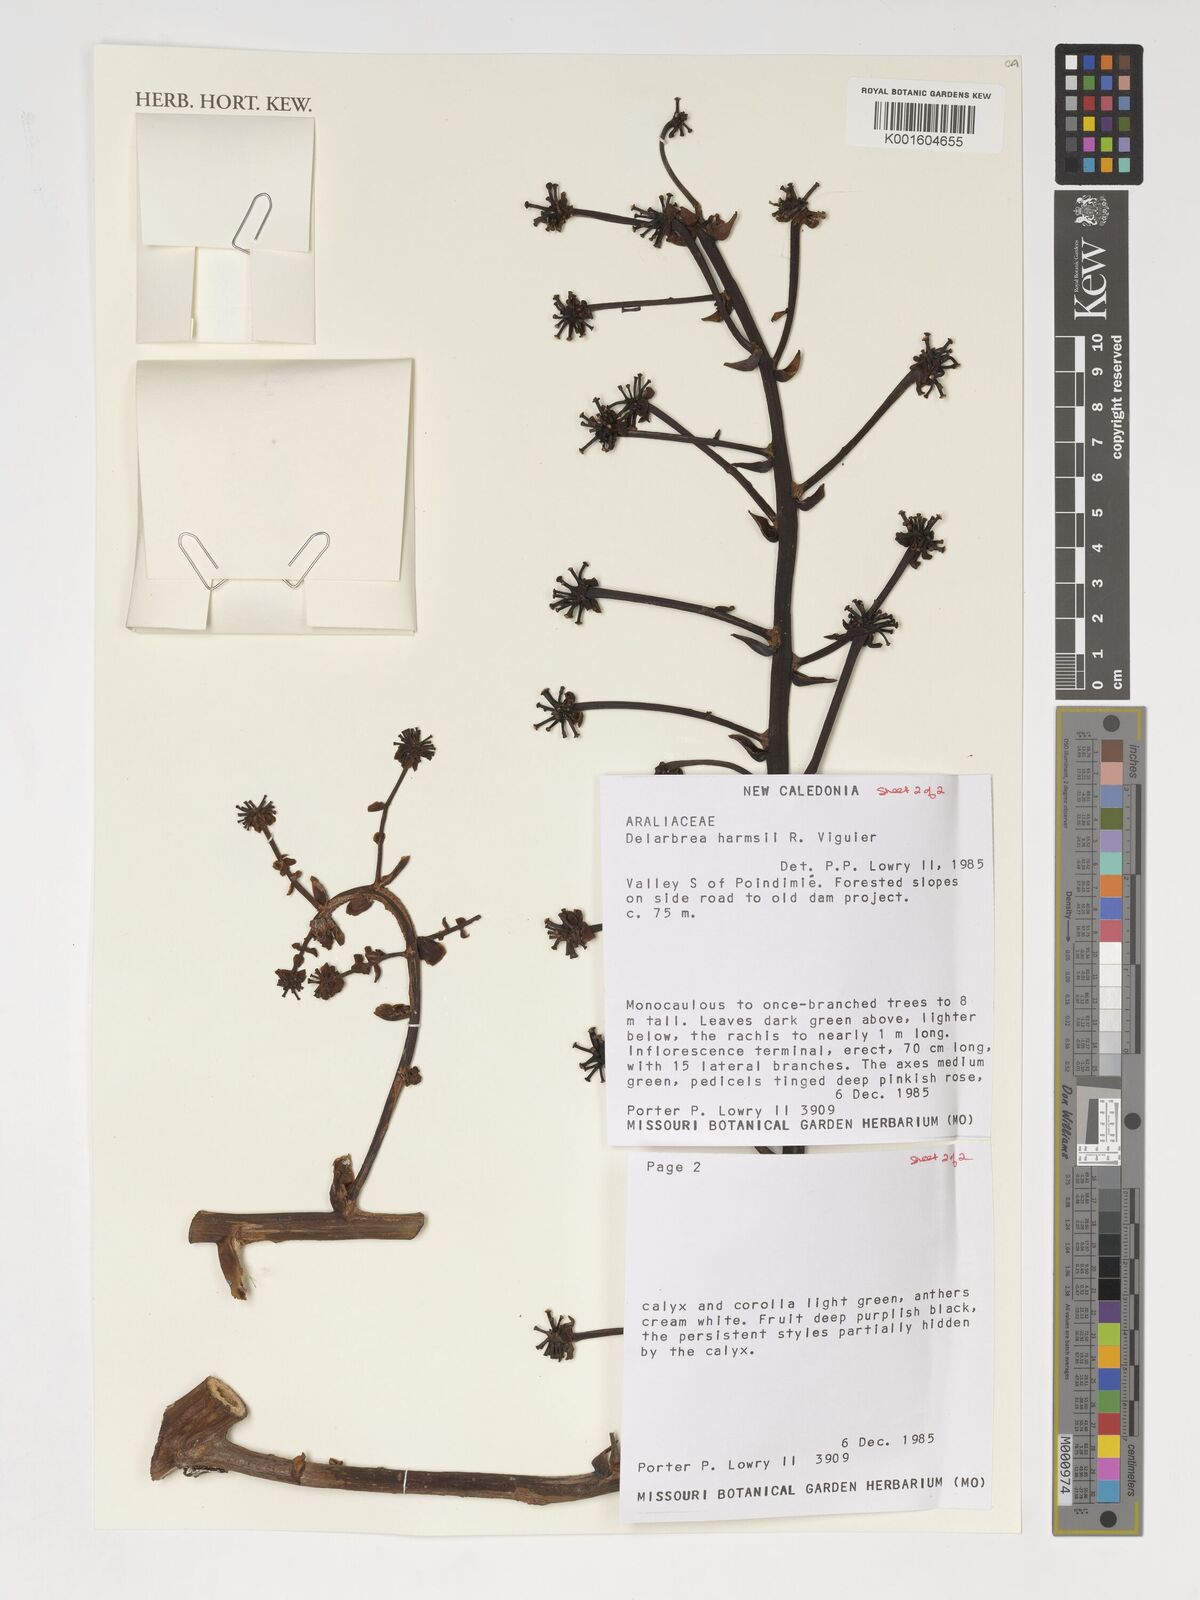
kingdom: Plantae
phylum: Tracheophyta
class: Magnoliopsida
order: Apiales
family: Myodocarpaceae
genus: Delarbrea
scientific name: Delarbrea harmsii
